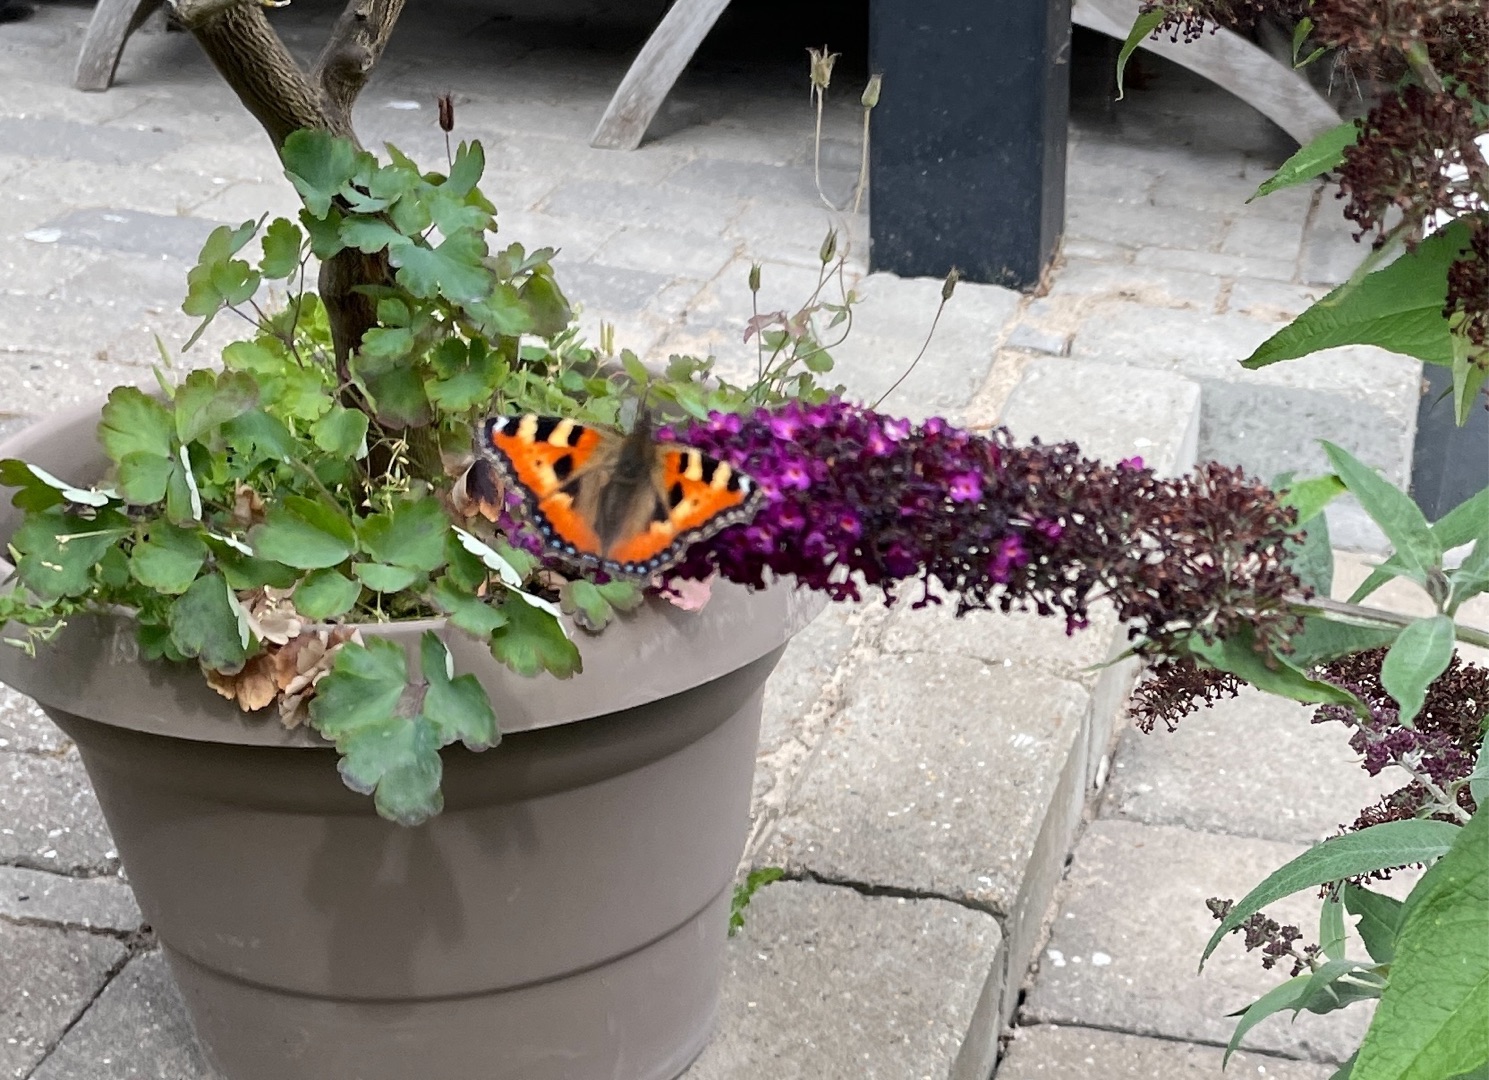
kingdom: Animalia
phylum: Arthropoda
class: Insecta
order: Lepidoptera
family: Nymphalidae
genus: Aglais
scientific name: Aglais urticae
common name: Nældens takvinge
